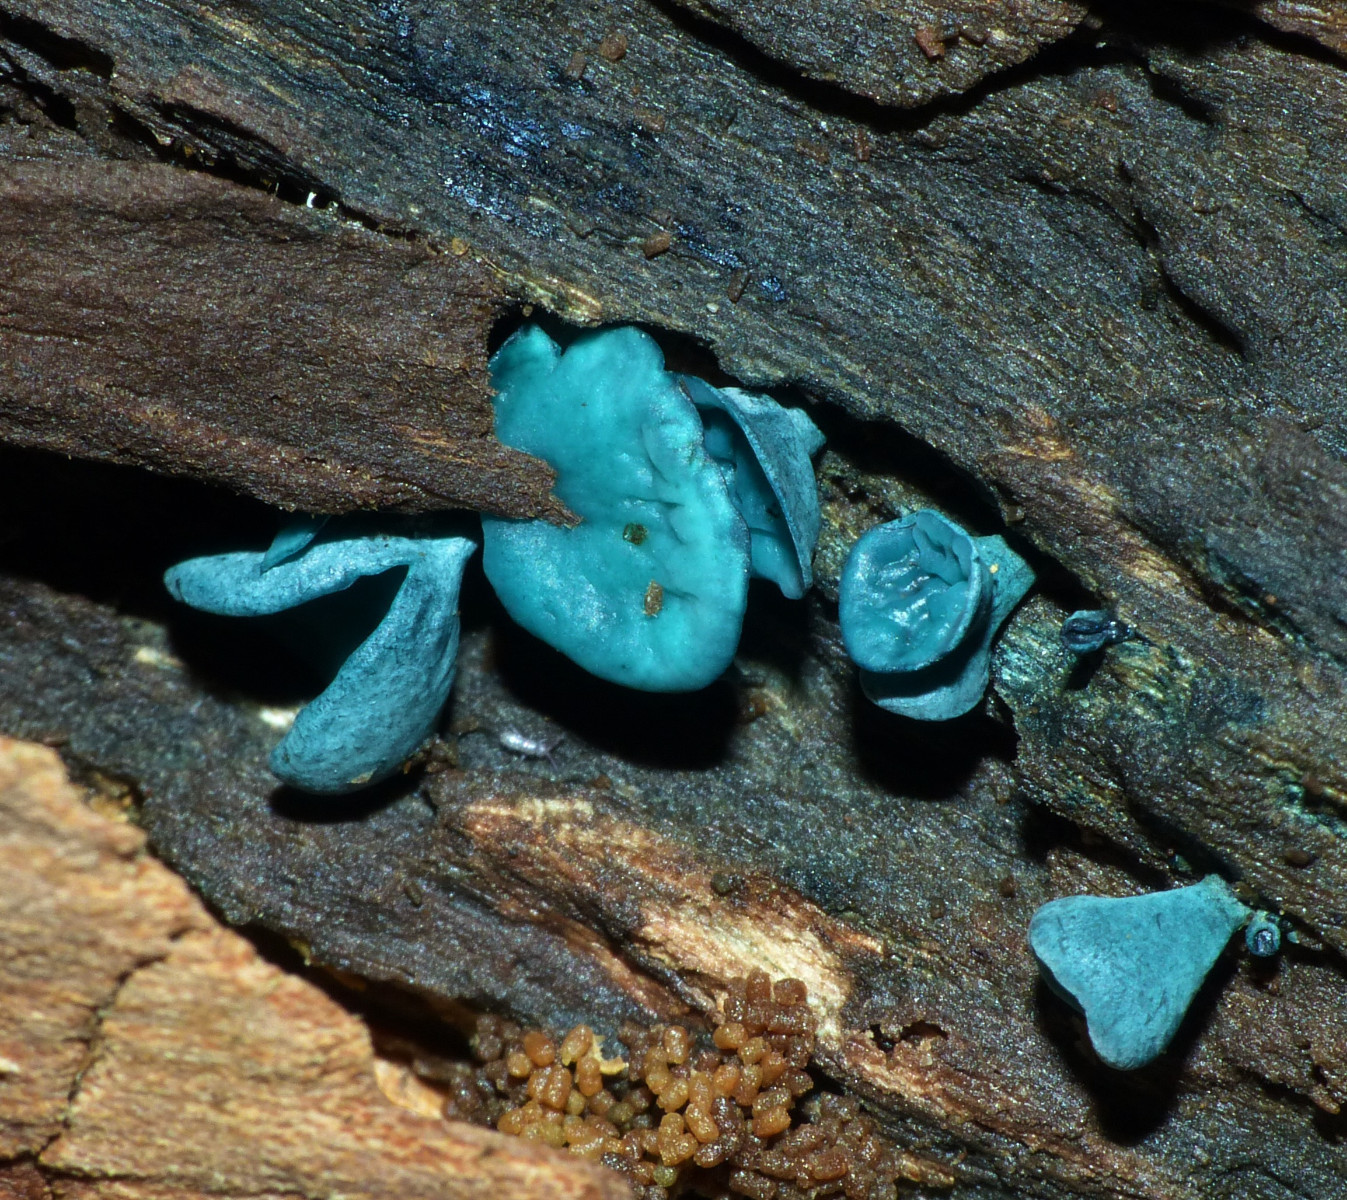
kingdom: Fungi
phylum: Ascomycota
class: Leotiomycetes
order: Helotiales
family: Chlorociboriaceae
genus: Chlorociboria
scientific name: Chlorociboria aeruginascens
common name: almindelig grønskive
